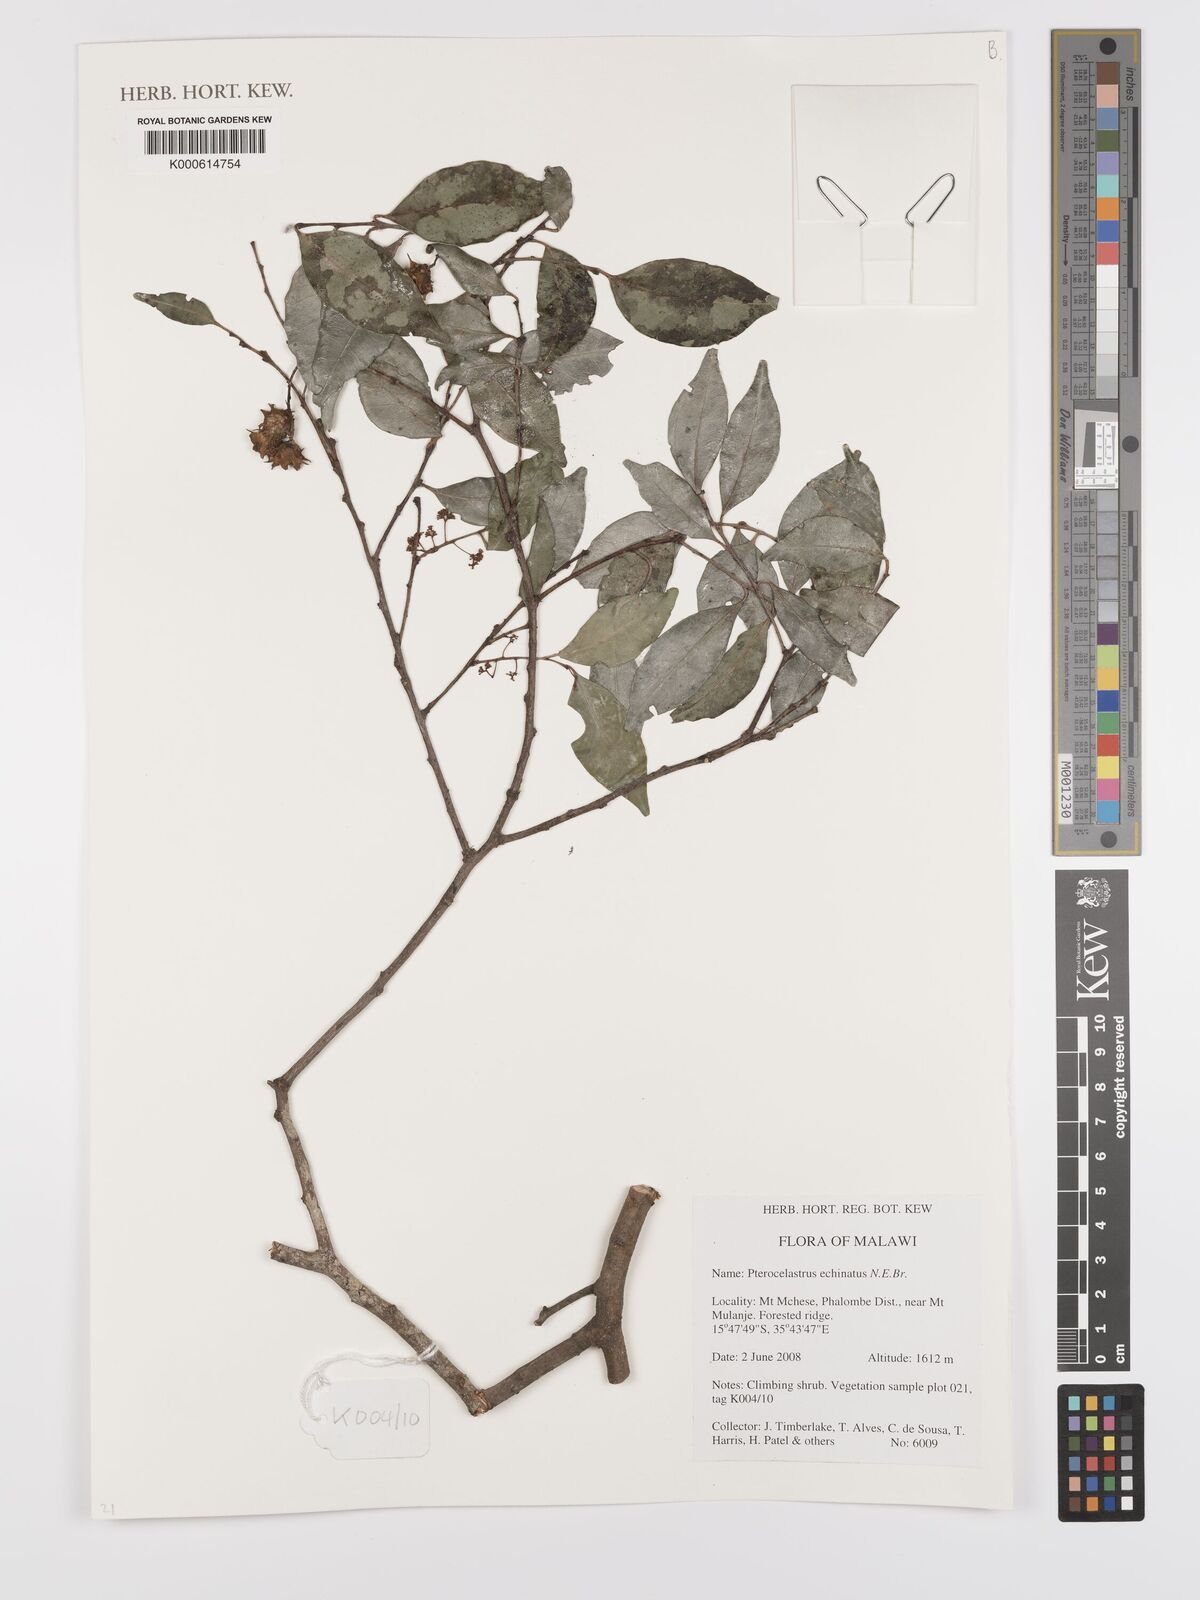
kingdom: Plantae
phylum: Tracheophyta
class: Magnoliopsida
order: Celastrales
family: Celastraceae
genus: Pterocelastrus
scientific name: Pterocelastrus echinatus
